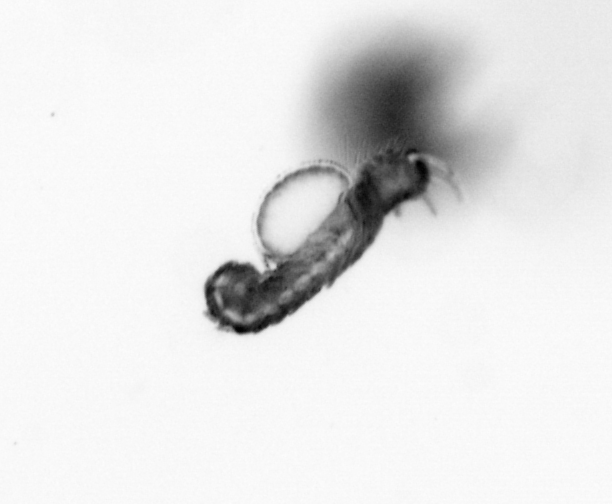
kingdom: Animalia
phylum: Annelida
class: Polychaeta
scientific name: Polychaeta
